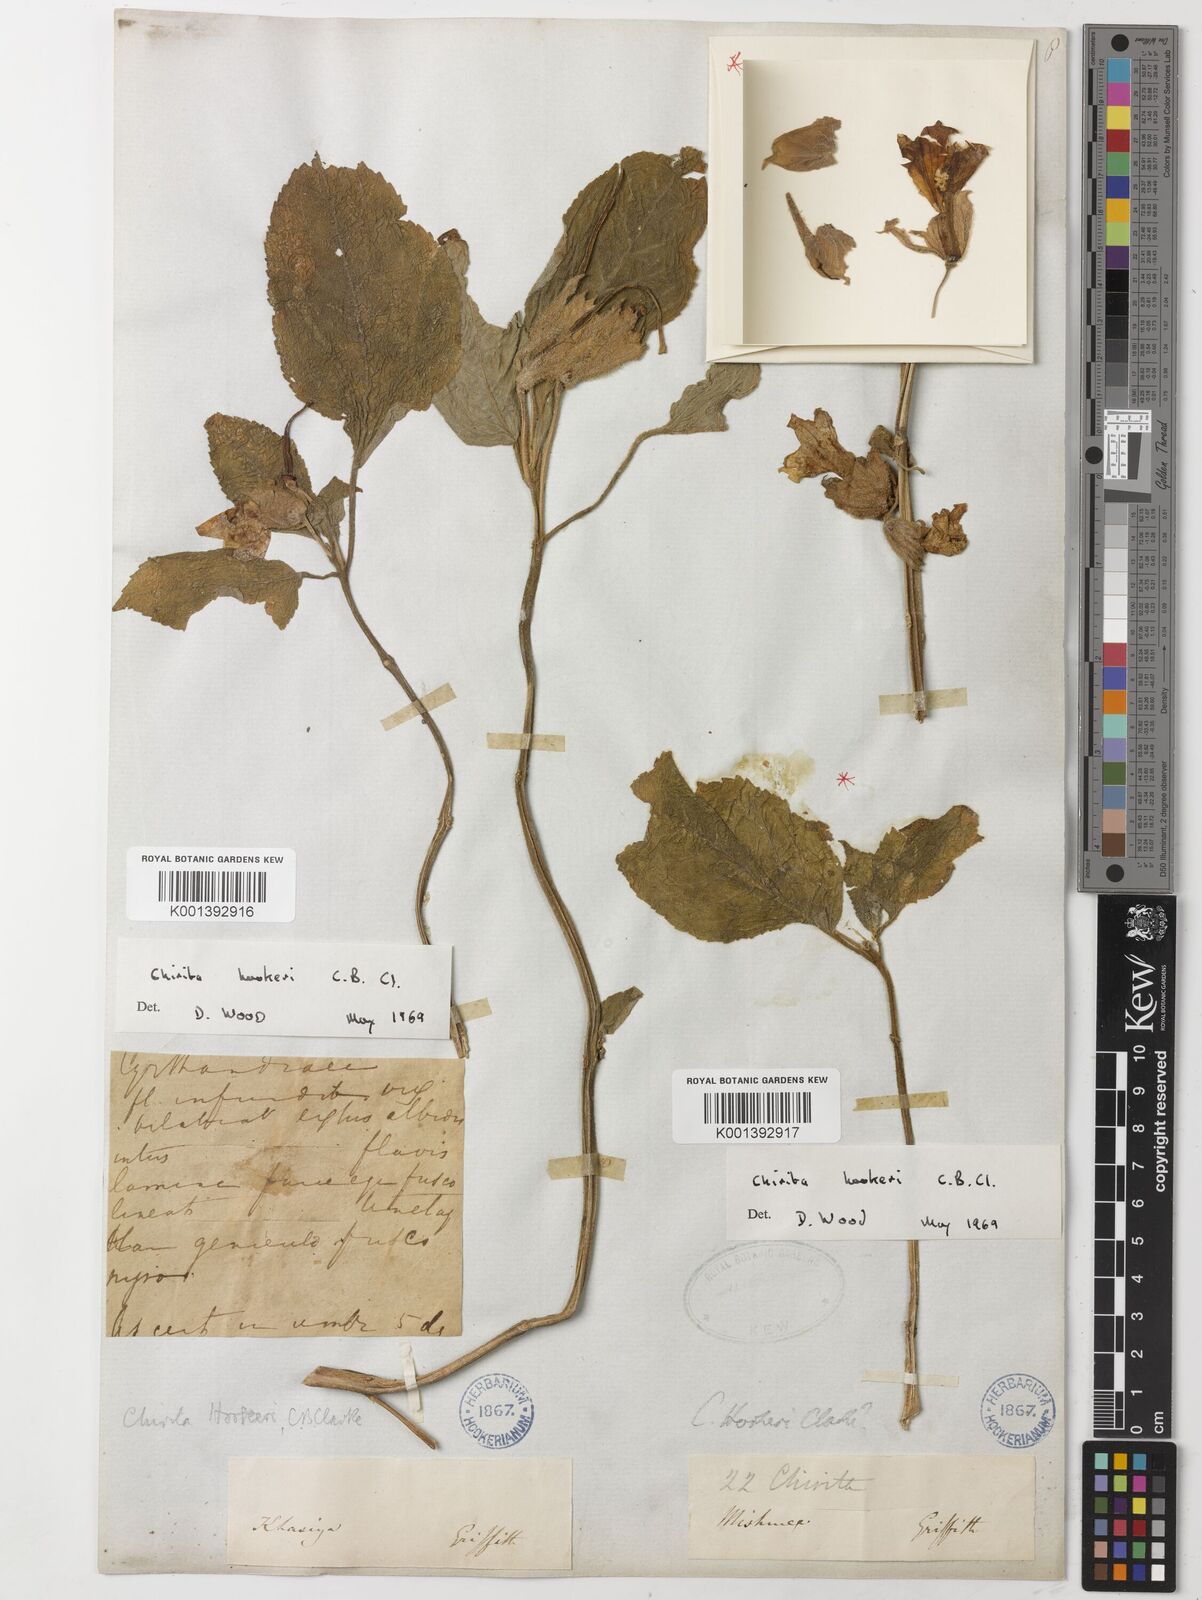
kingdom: Plantae
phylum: Tracheophyta
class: Magnoliopsida
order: Lamiales
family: Gesneriaceae
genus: Henckelia
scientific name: Henckelia hookeri
